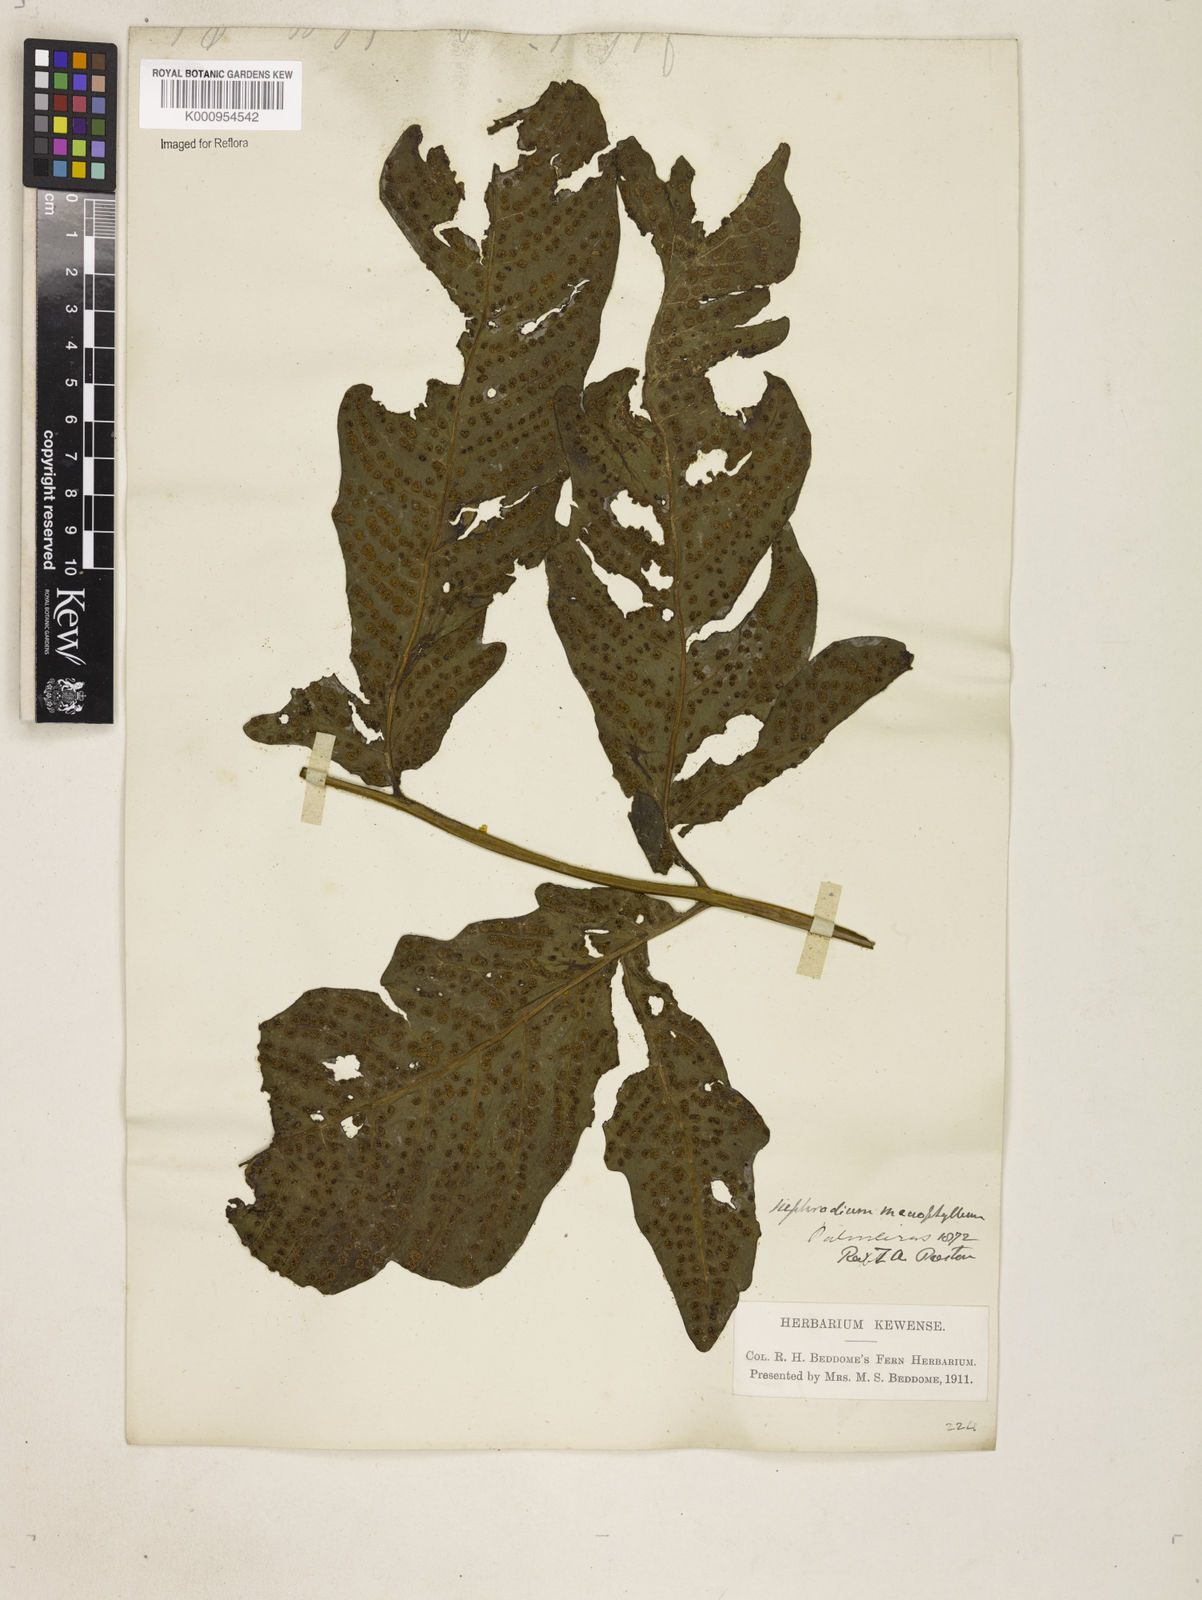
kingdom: Plantae
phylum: Tracheophyta
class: Polypodiopsida
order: Polypodiales
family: Tectariaceae
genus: Tectaria
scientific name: Tectaria incisa
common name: Incised halberd fern
